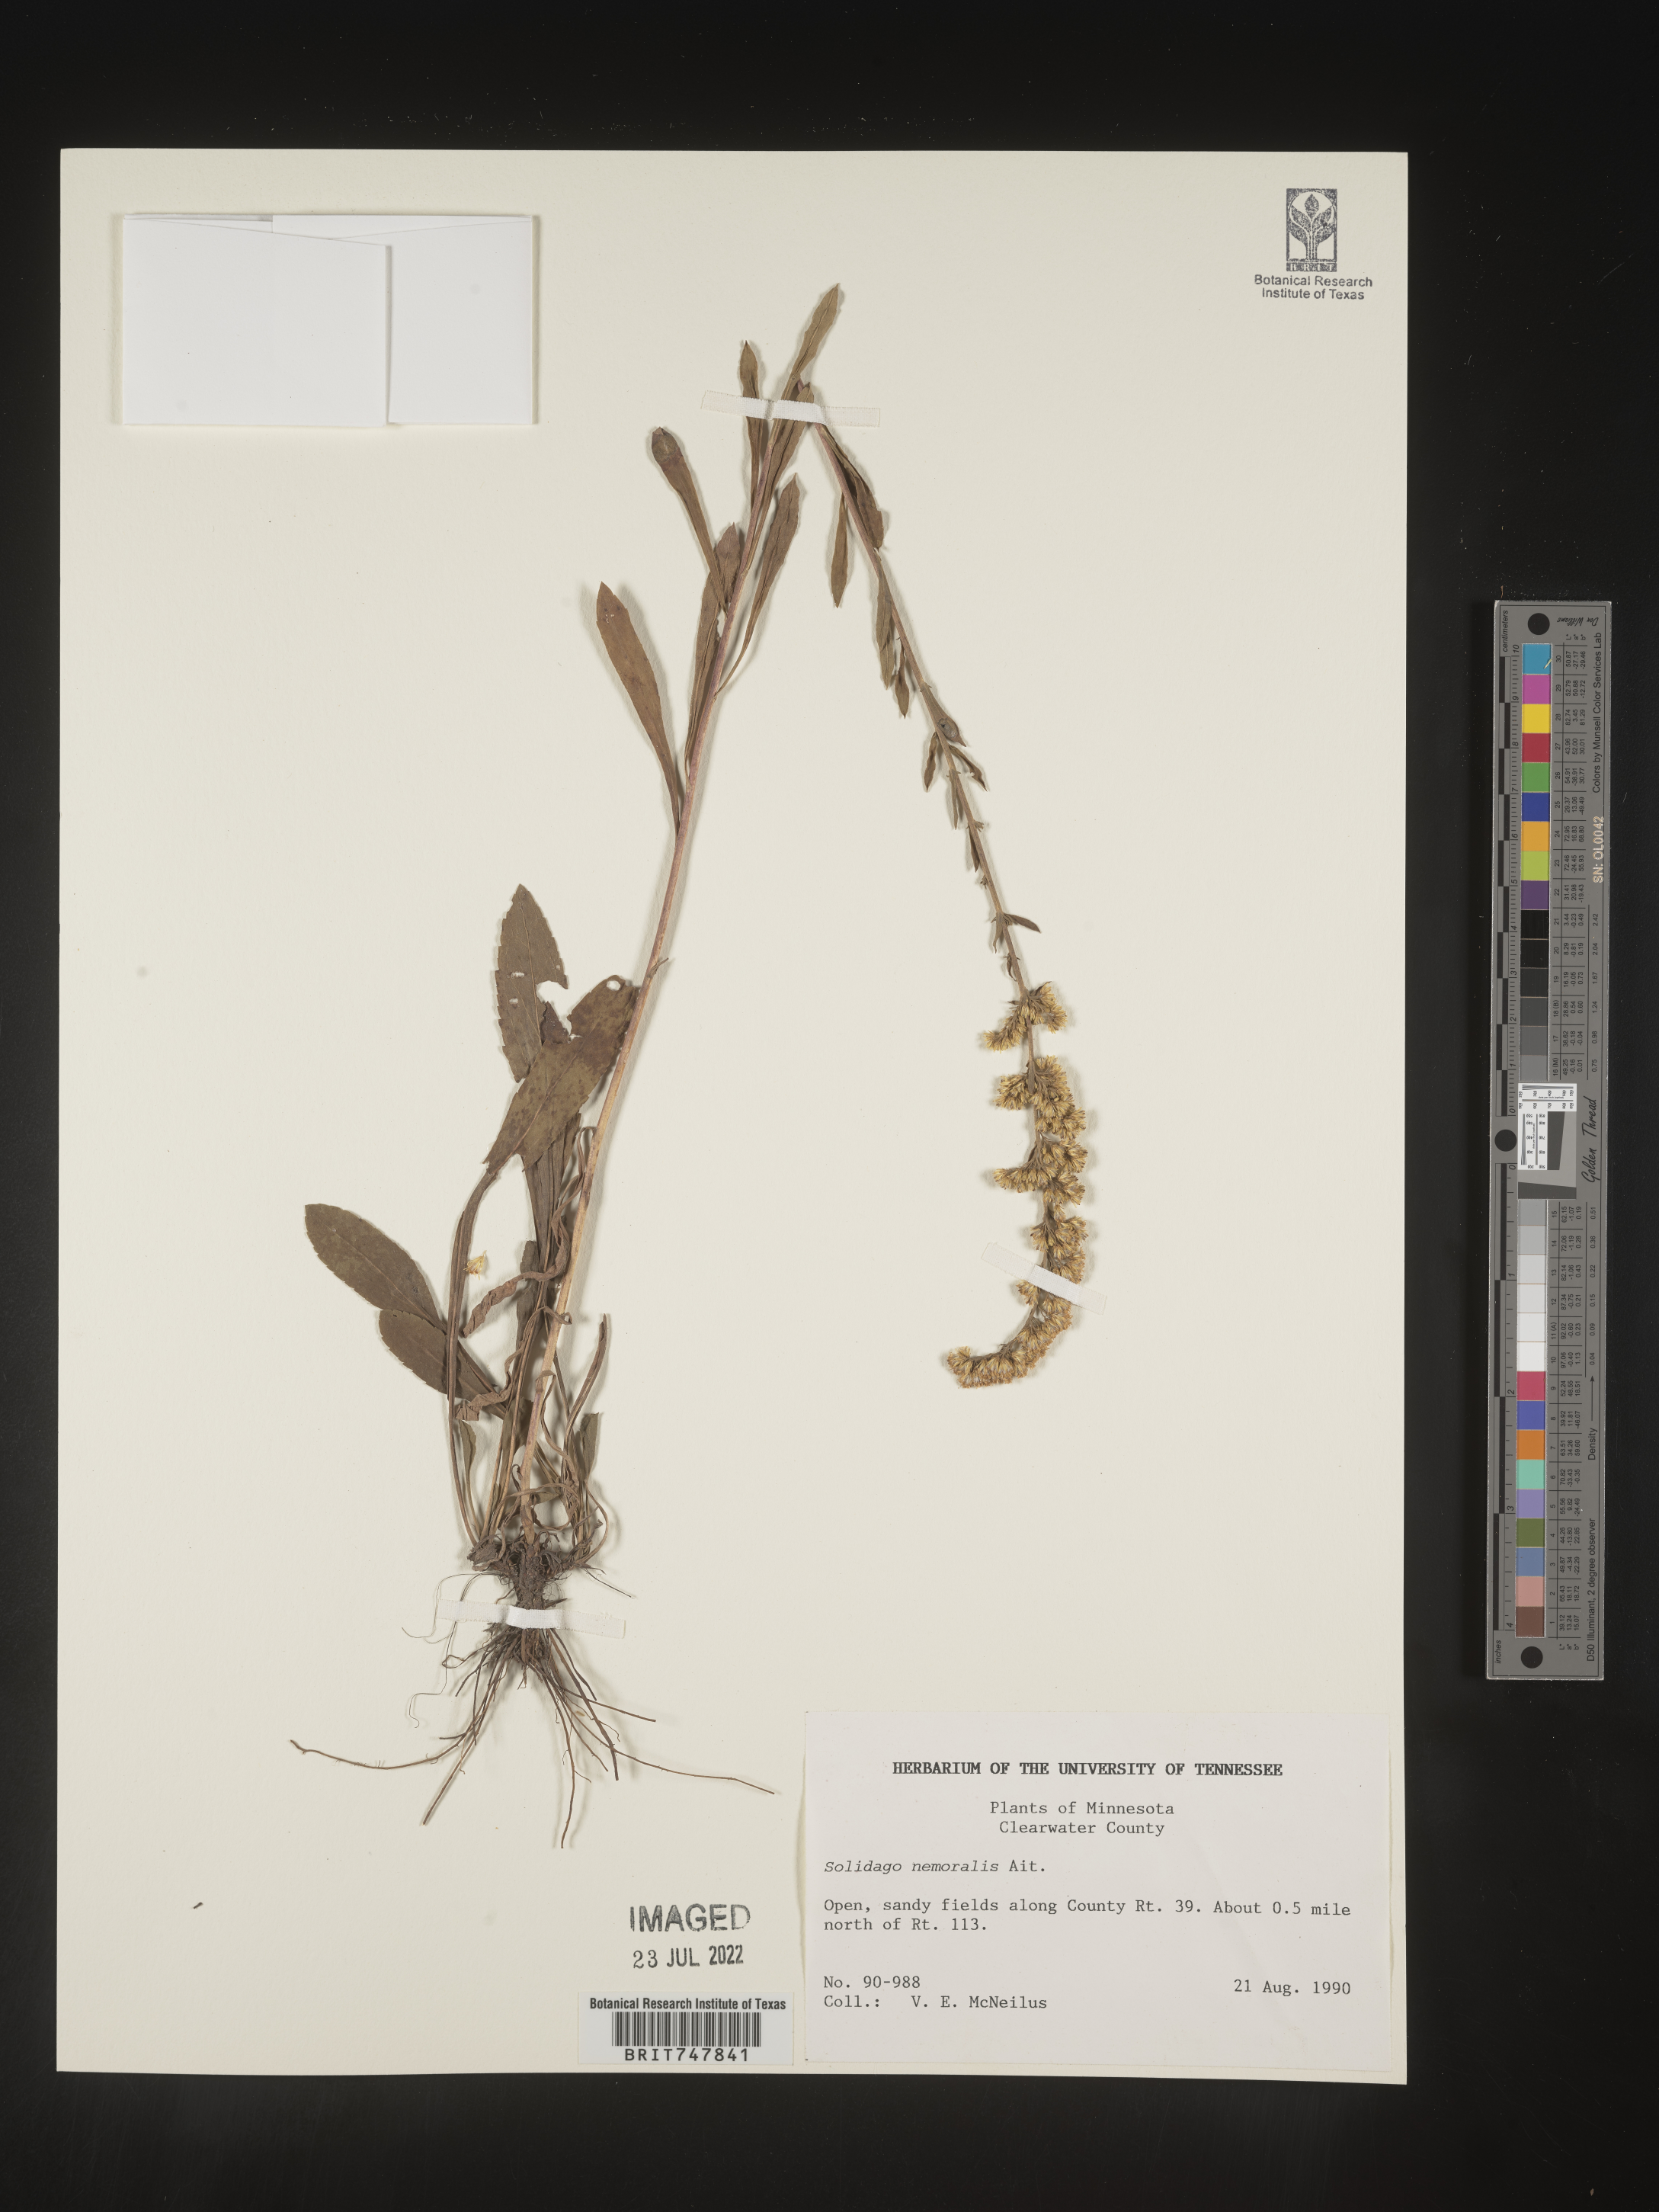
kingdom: Plantae
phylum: Tracheophyta
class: Magnoliopsida
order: Asterales
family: Asteraceae
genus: Solidago
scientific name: Solidago nemoralis
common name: Grey goldenrod
